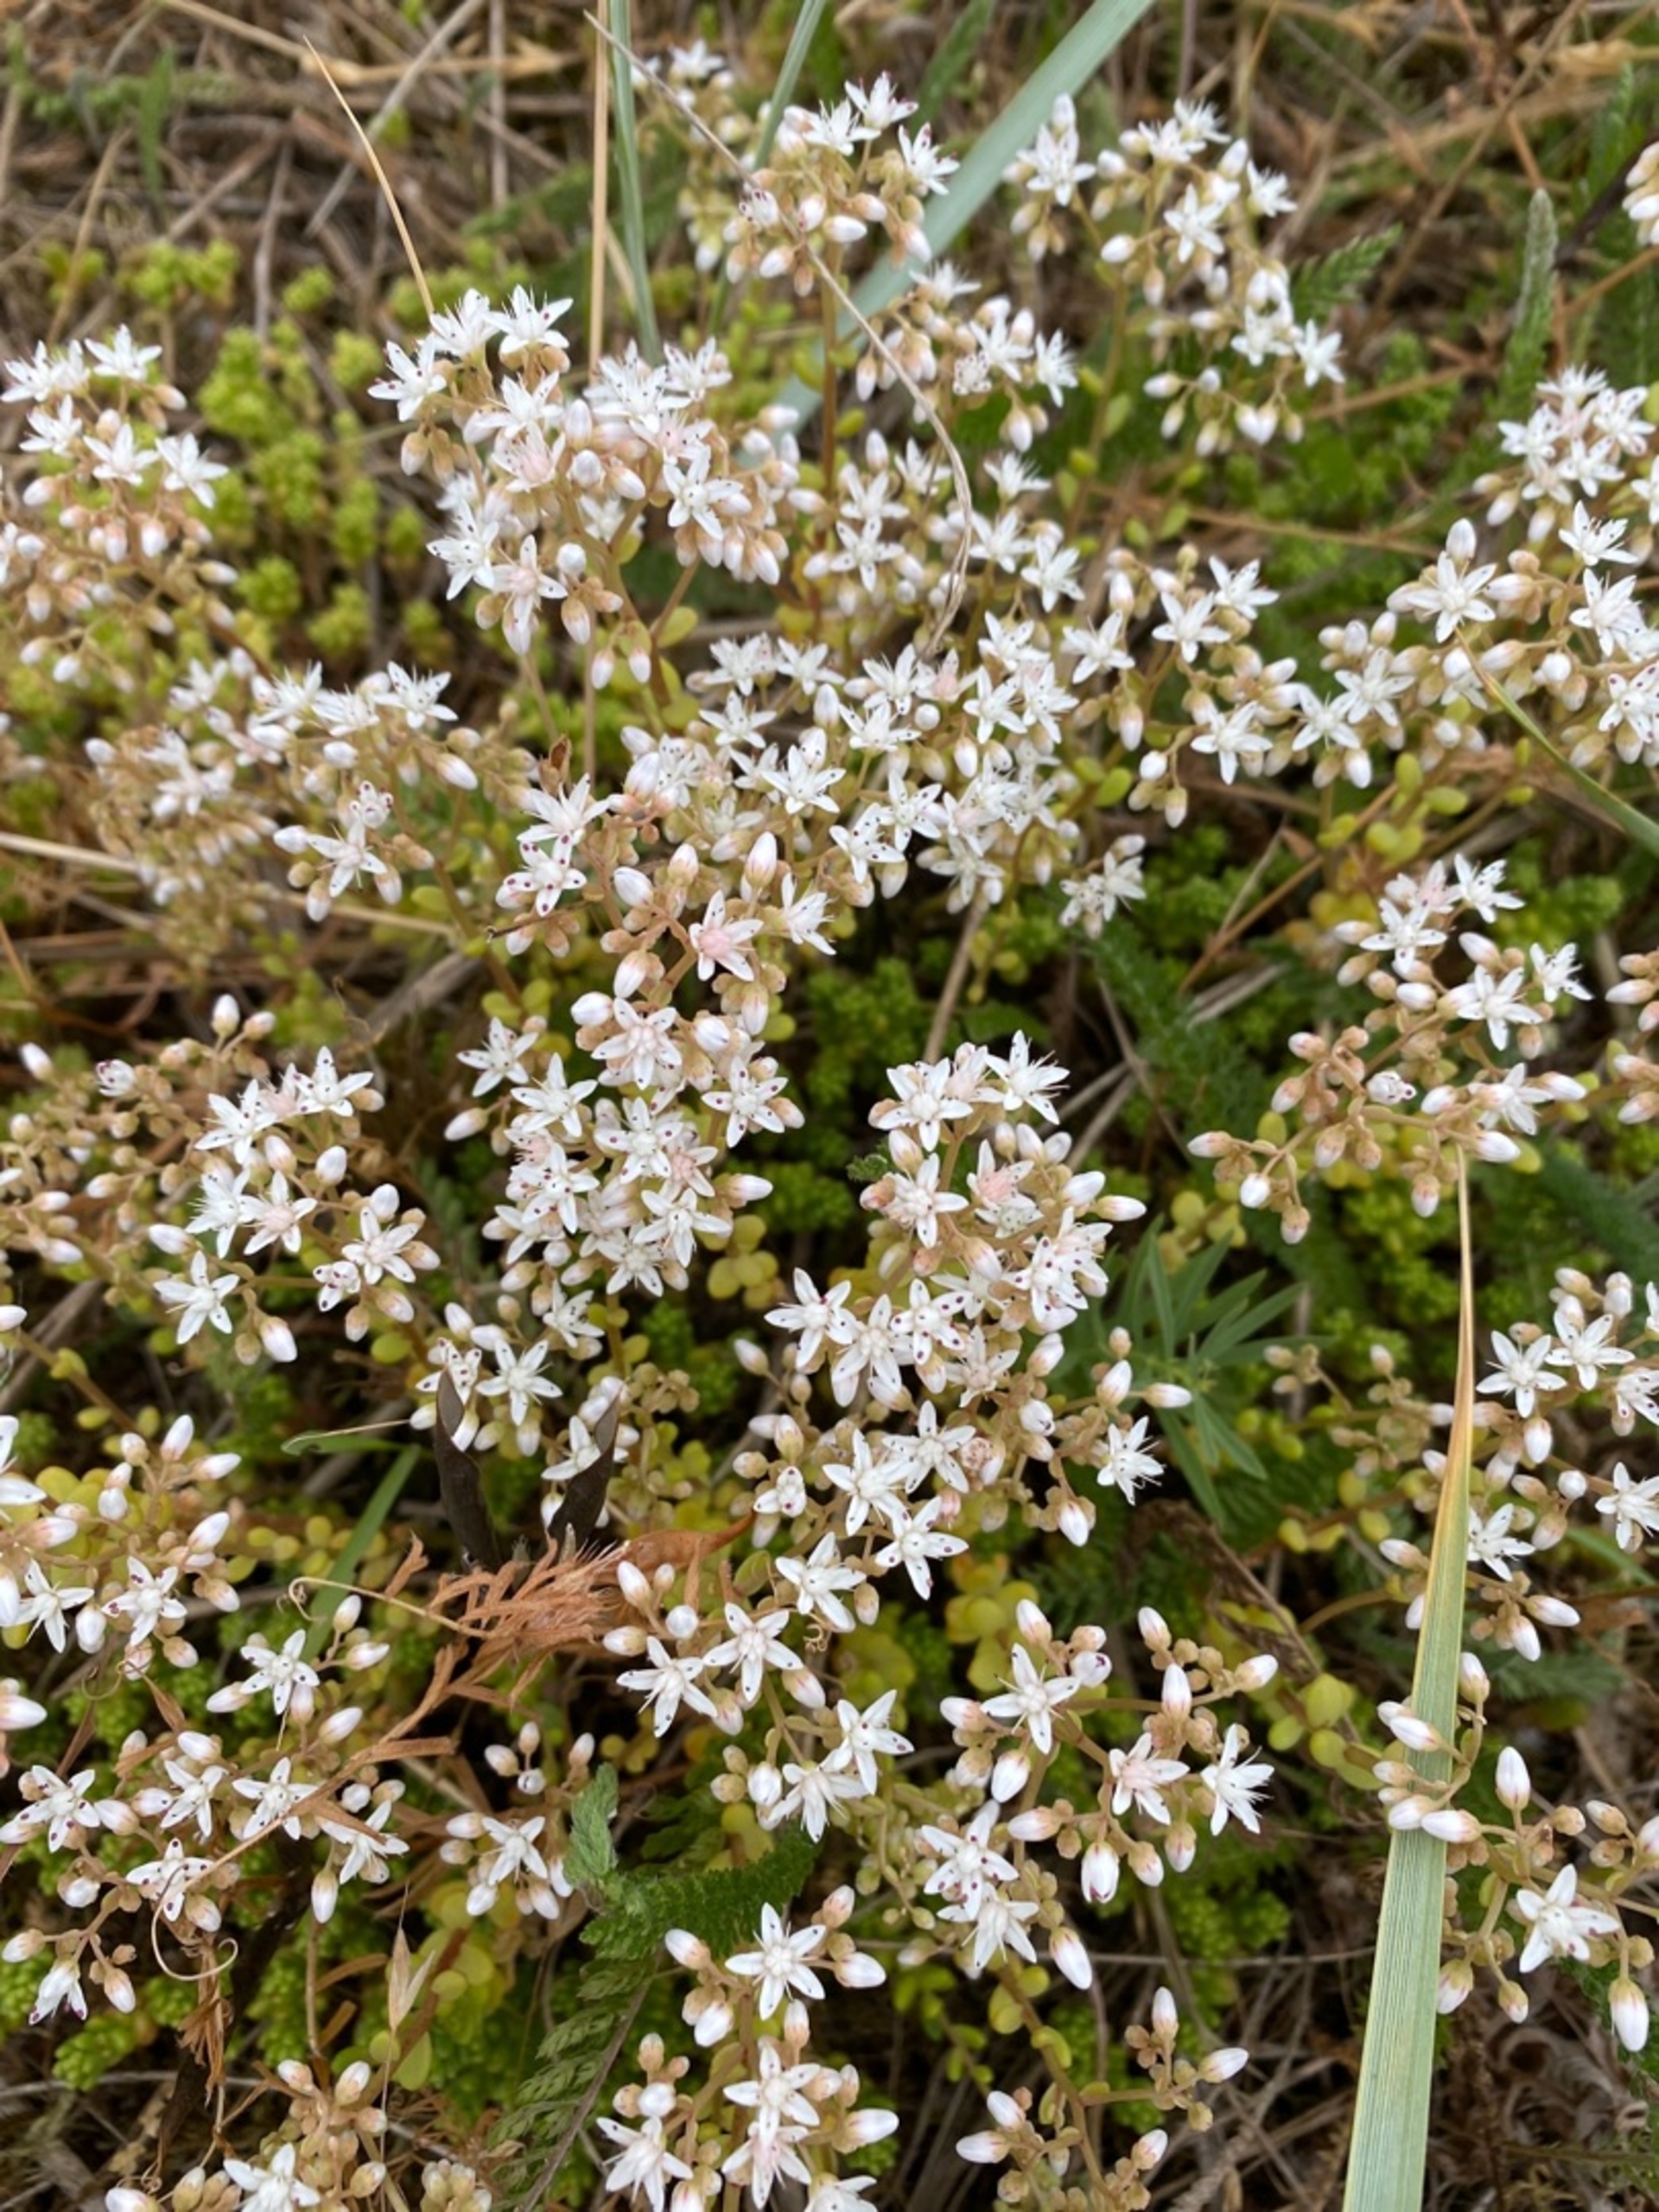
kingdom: Plantae
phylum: Tracheophyta
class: Magnoliopsida
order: Saxifragales
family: Crassulaceae
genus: Sedum
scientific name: Sedum album
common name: Hvid stenurt
